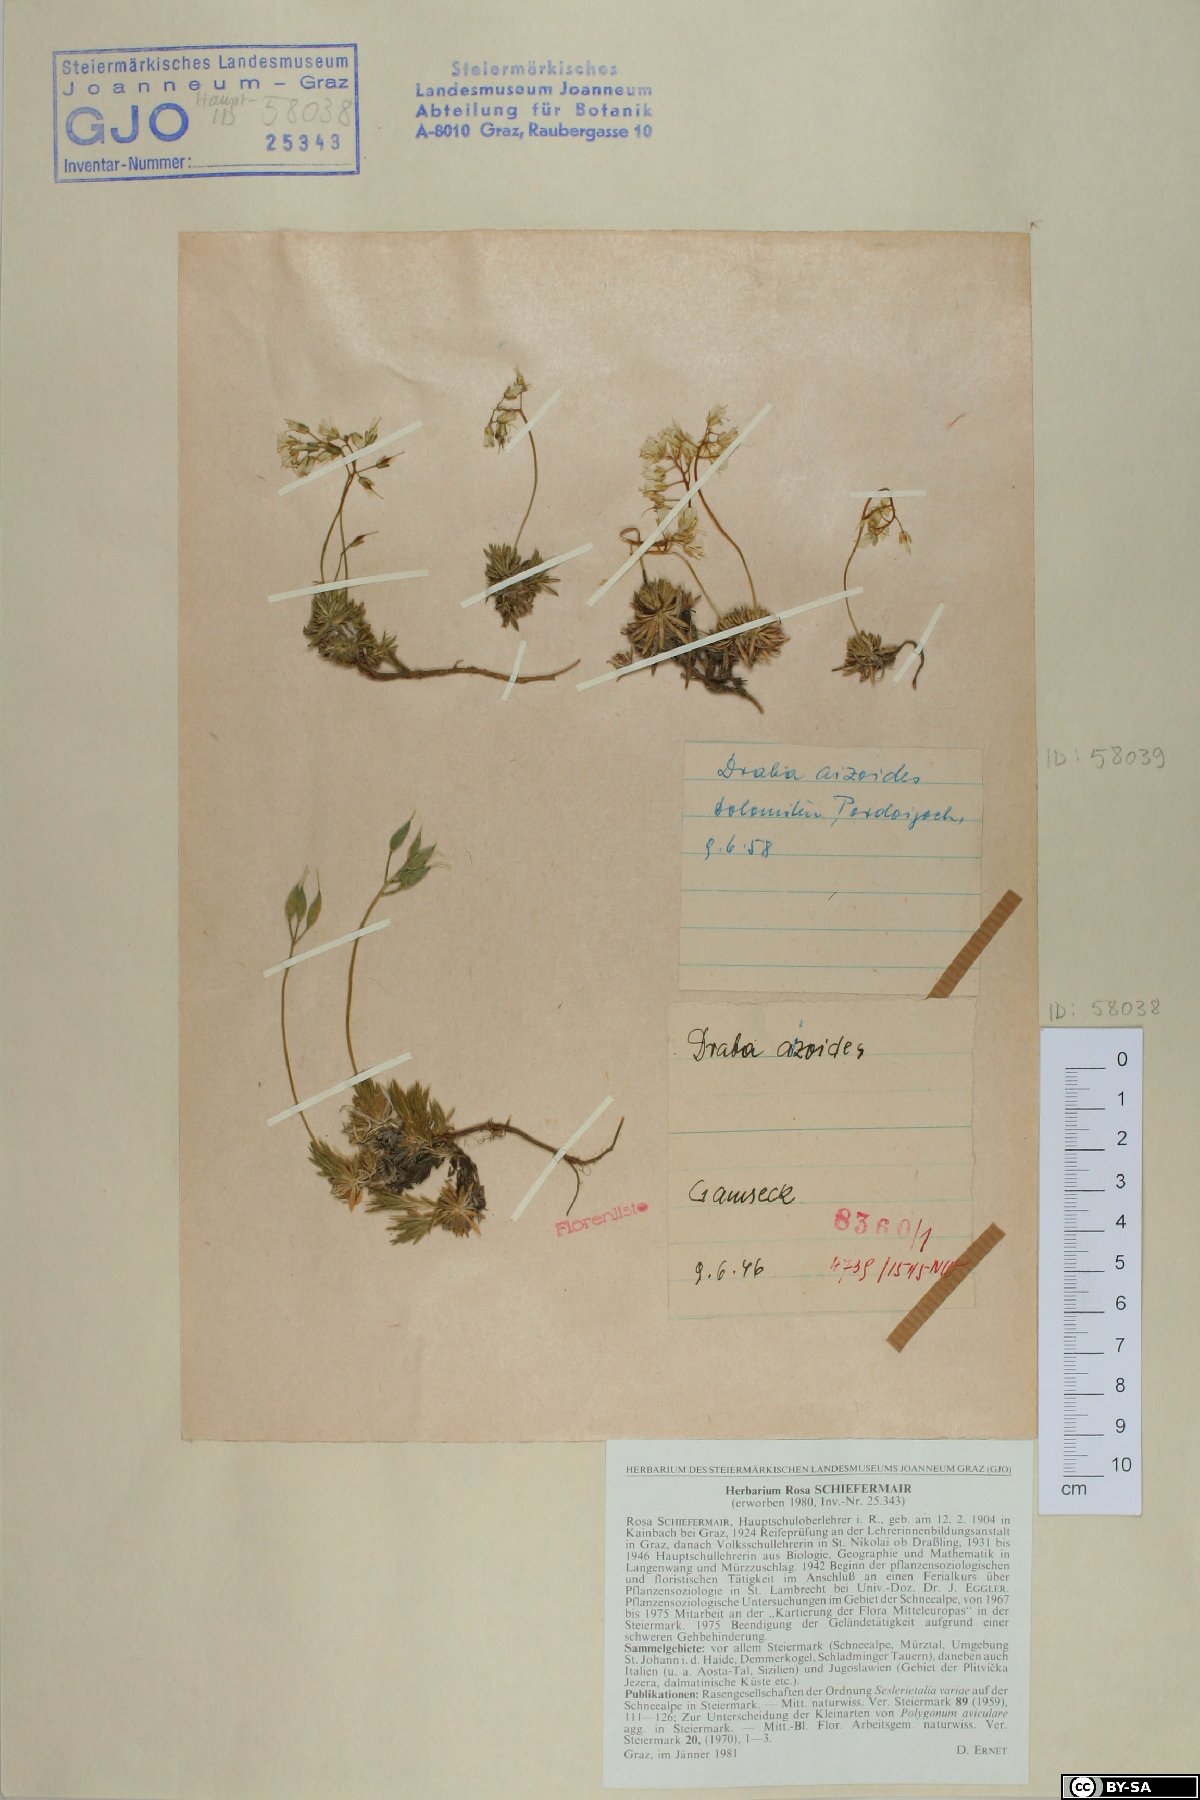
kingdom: Plantae
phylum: Tracheophyta
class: Magnoliopsida
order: Brassicales
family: Brassicaceae
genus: Draba
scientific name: Draba aizoides
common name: Yellow whitlowgrass
